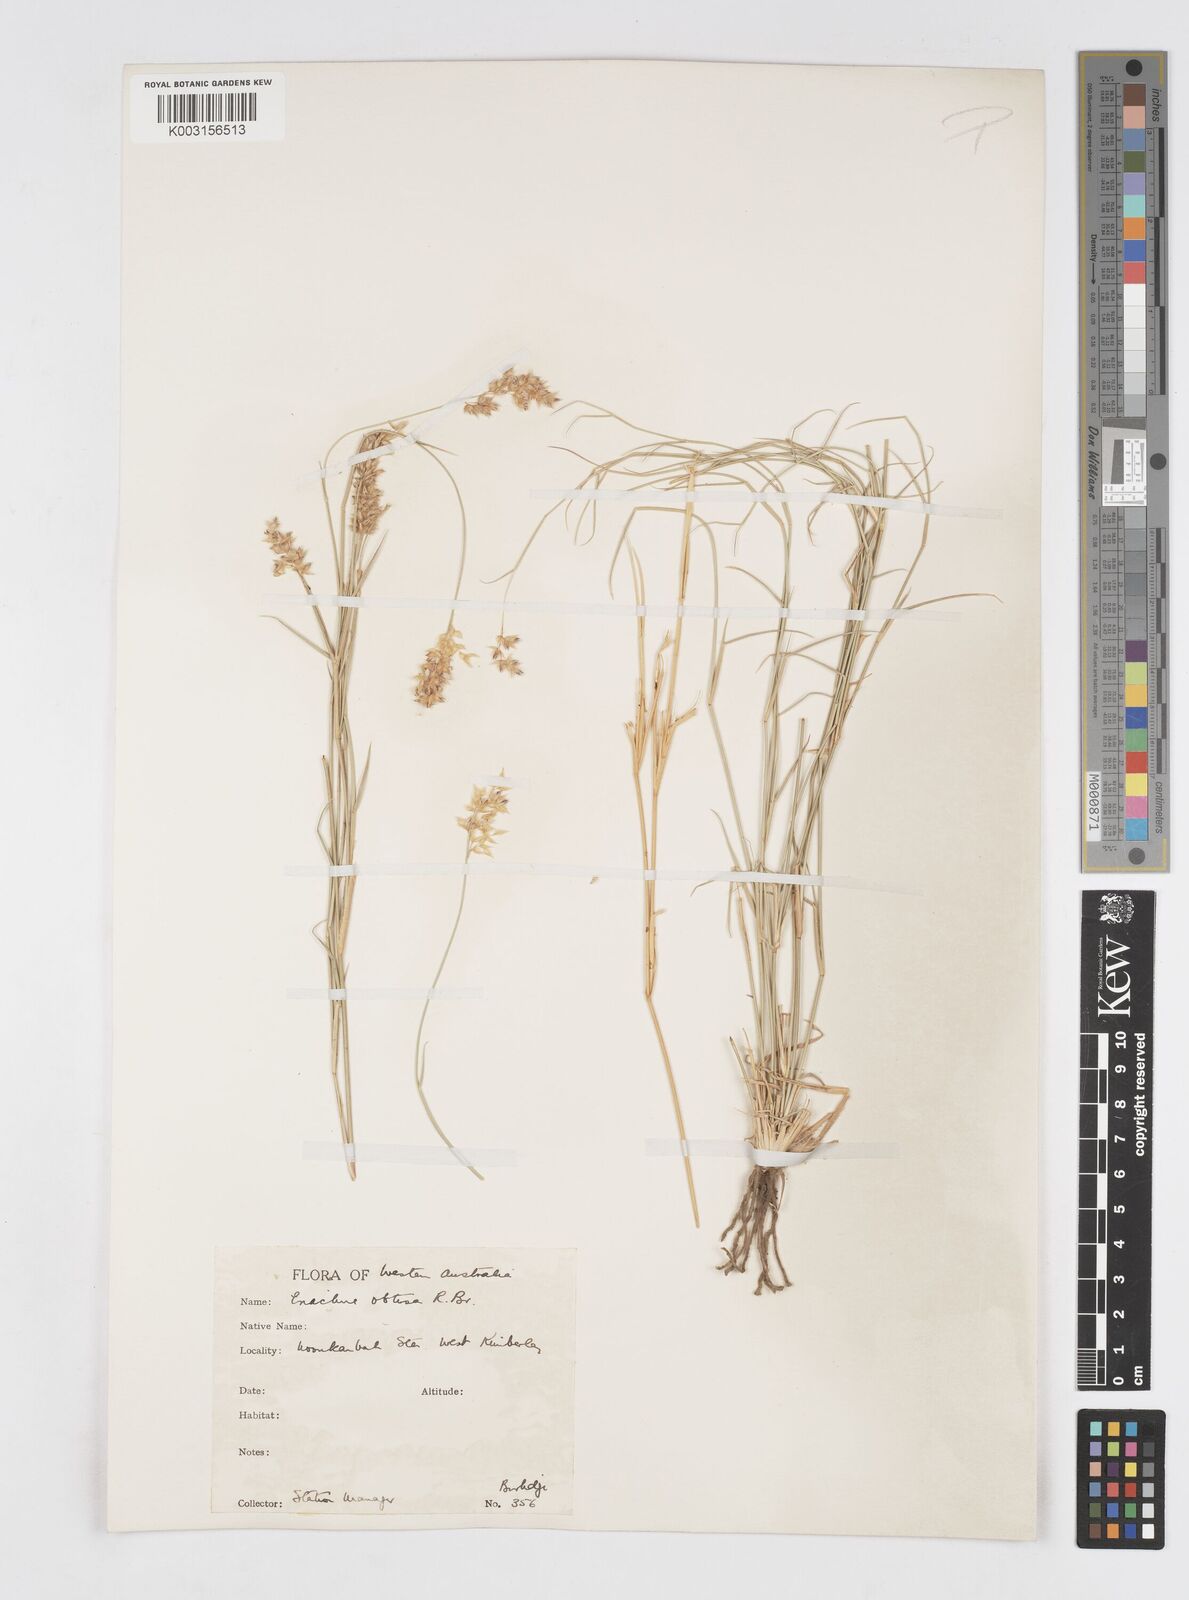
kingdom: Plantae
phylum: Tracheophyta
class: Liliopsida
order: Poales
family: Poaceae
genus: Eriachne
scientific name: Eriachne obtusa
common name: Northern wanderrie grass
